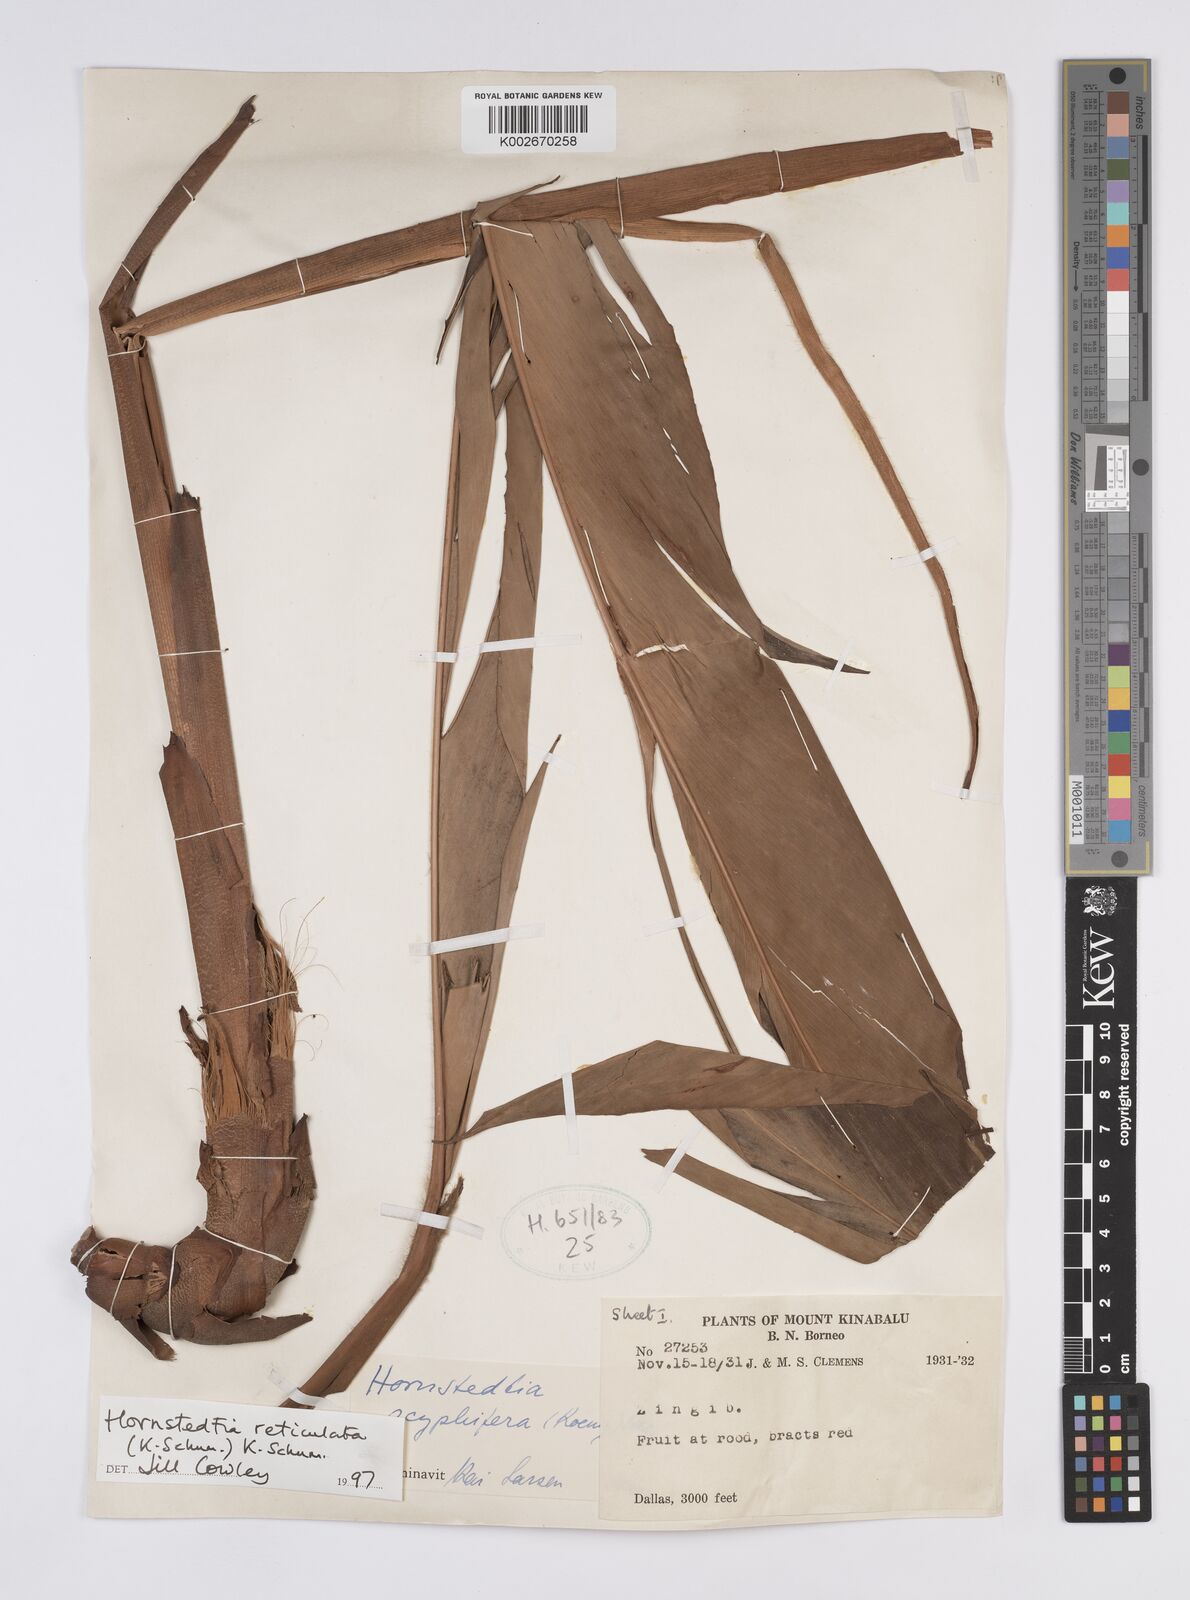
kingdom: Plantae
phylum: Tracheophyta
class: Liliopsida
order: Zingiberales
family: Zingiberaceae
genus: Hornstedtia
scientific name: Hornstedtia reticulata
